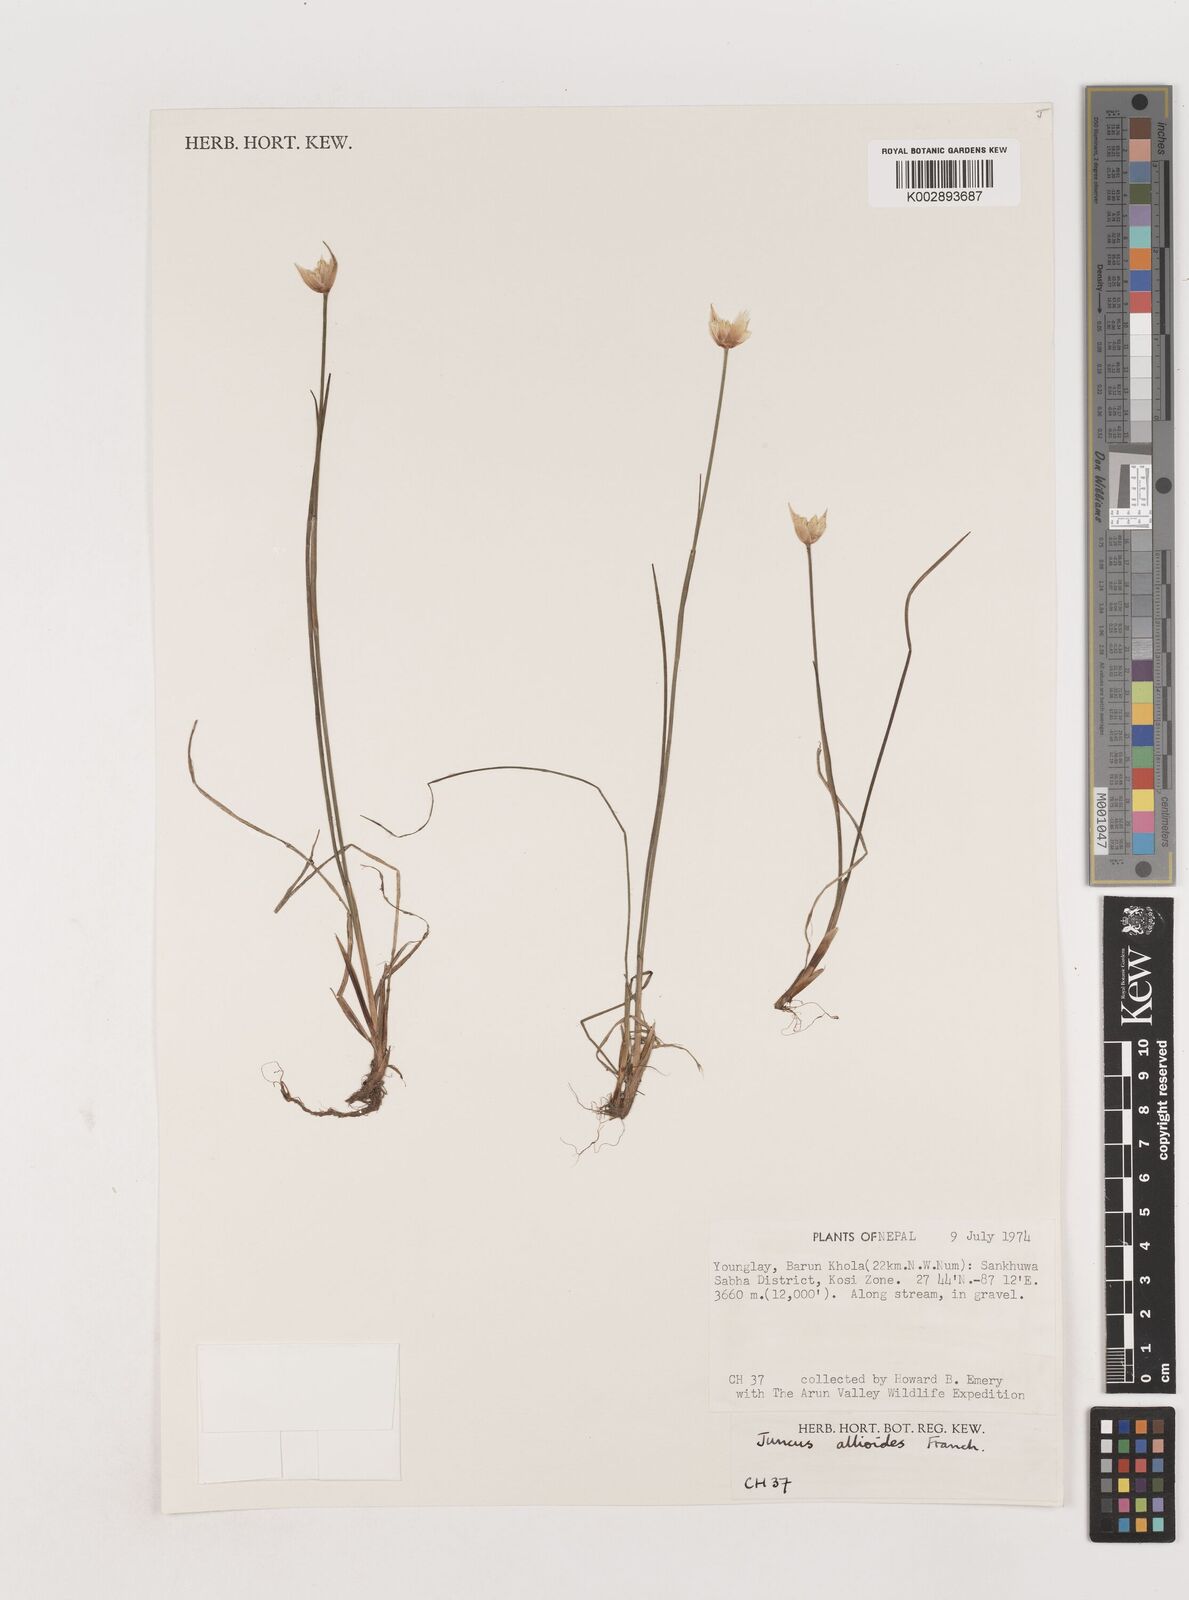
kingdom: Plantae
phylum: Tracheophyta
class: Liliopsida
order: Poales
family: Juncaceae
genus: Juncus
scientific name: Juncus allioides
